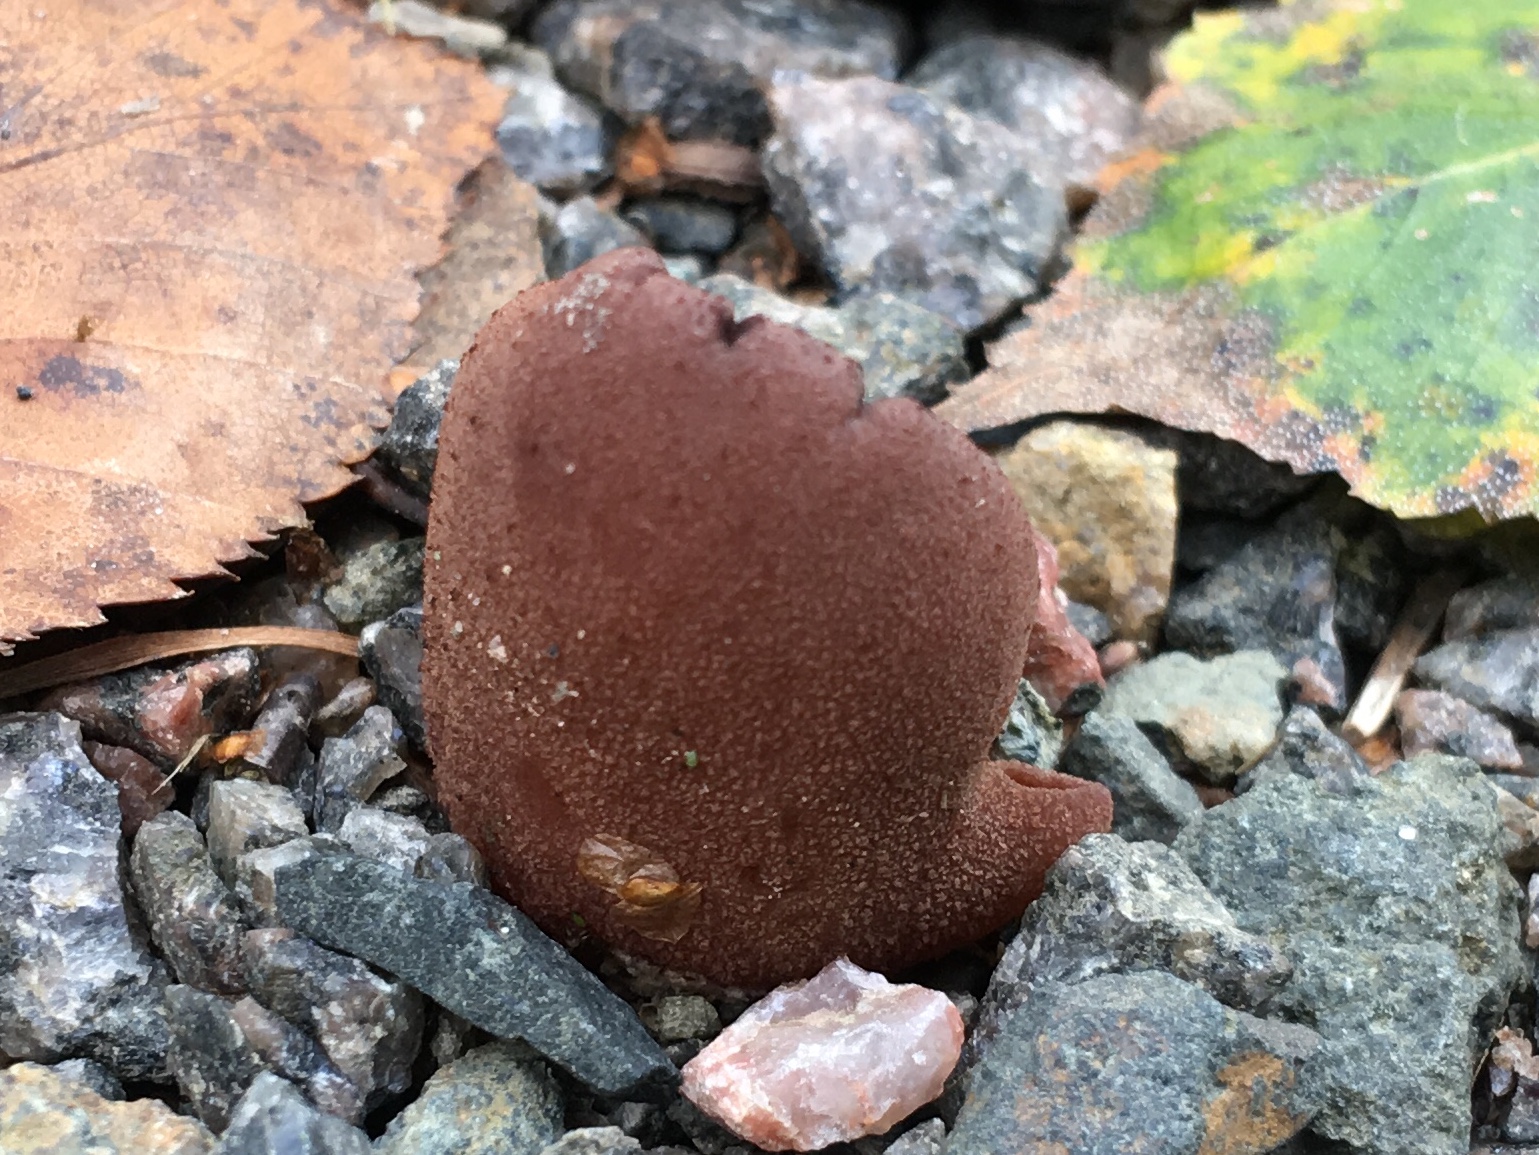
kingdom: Fungi
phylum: Ascomycota
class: Pezizomycetes
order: Pezizales
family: Pezizaceae
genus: Legaliana
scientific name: Legaliana
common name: bægersvamp
